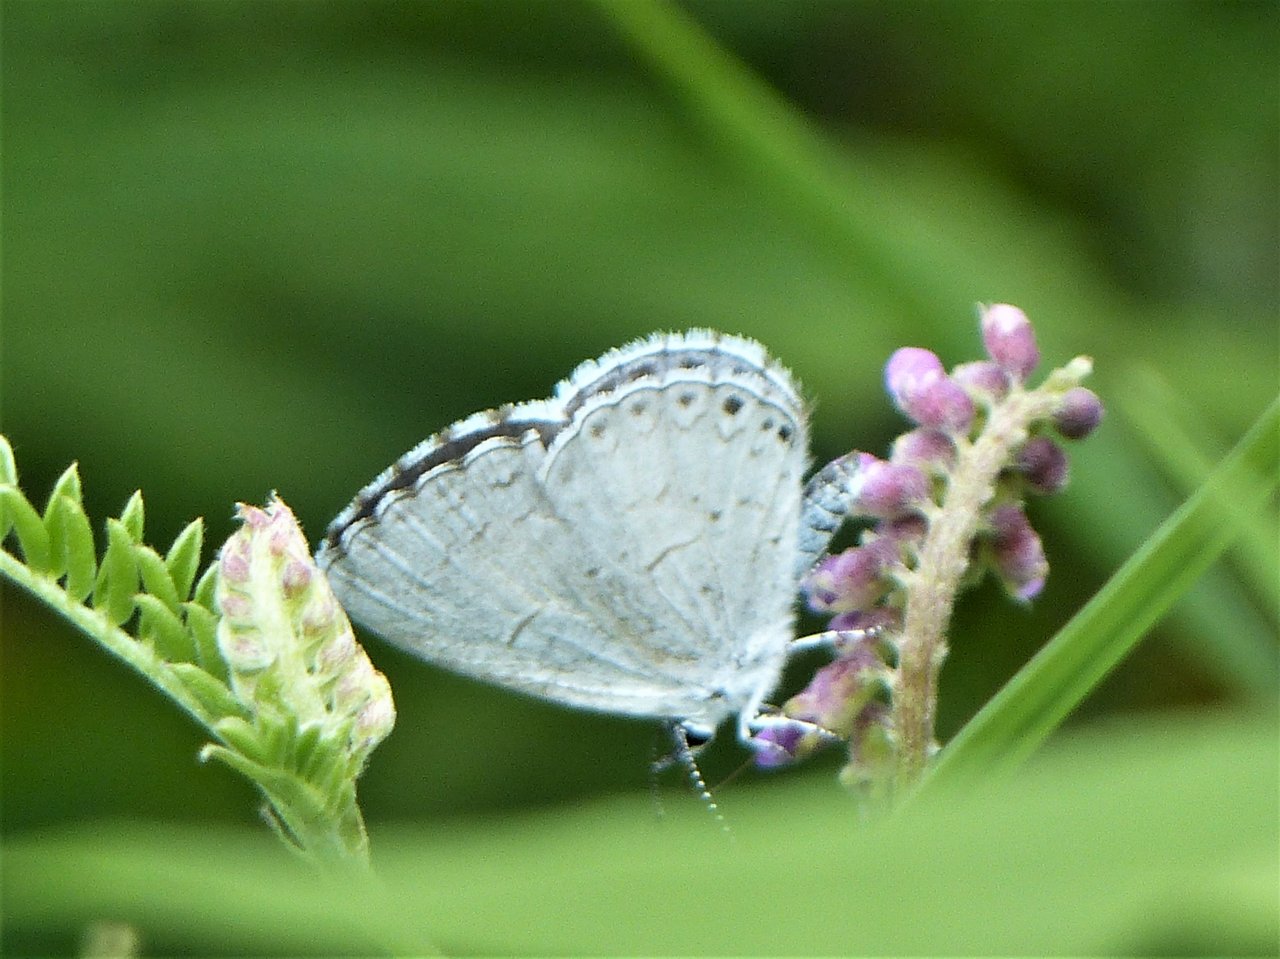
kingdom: Animalia
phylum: Arthropoda
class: Insecta
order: Lepidoptera
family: Lycaenidae
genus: Celastrina
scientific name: Celastrina lucia
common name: Northern Spring Azure
